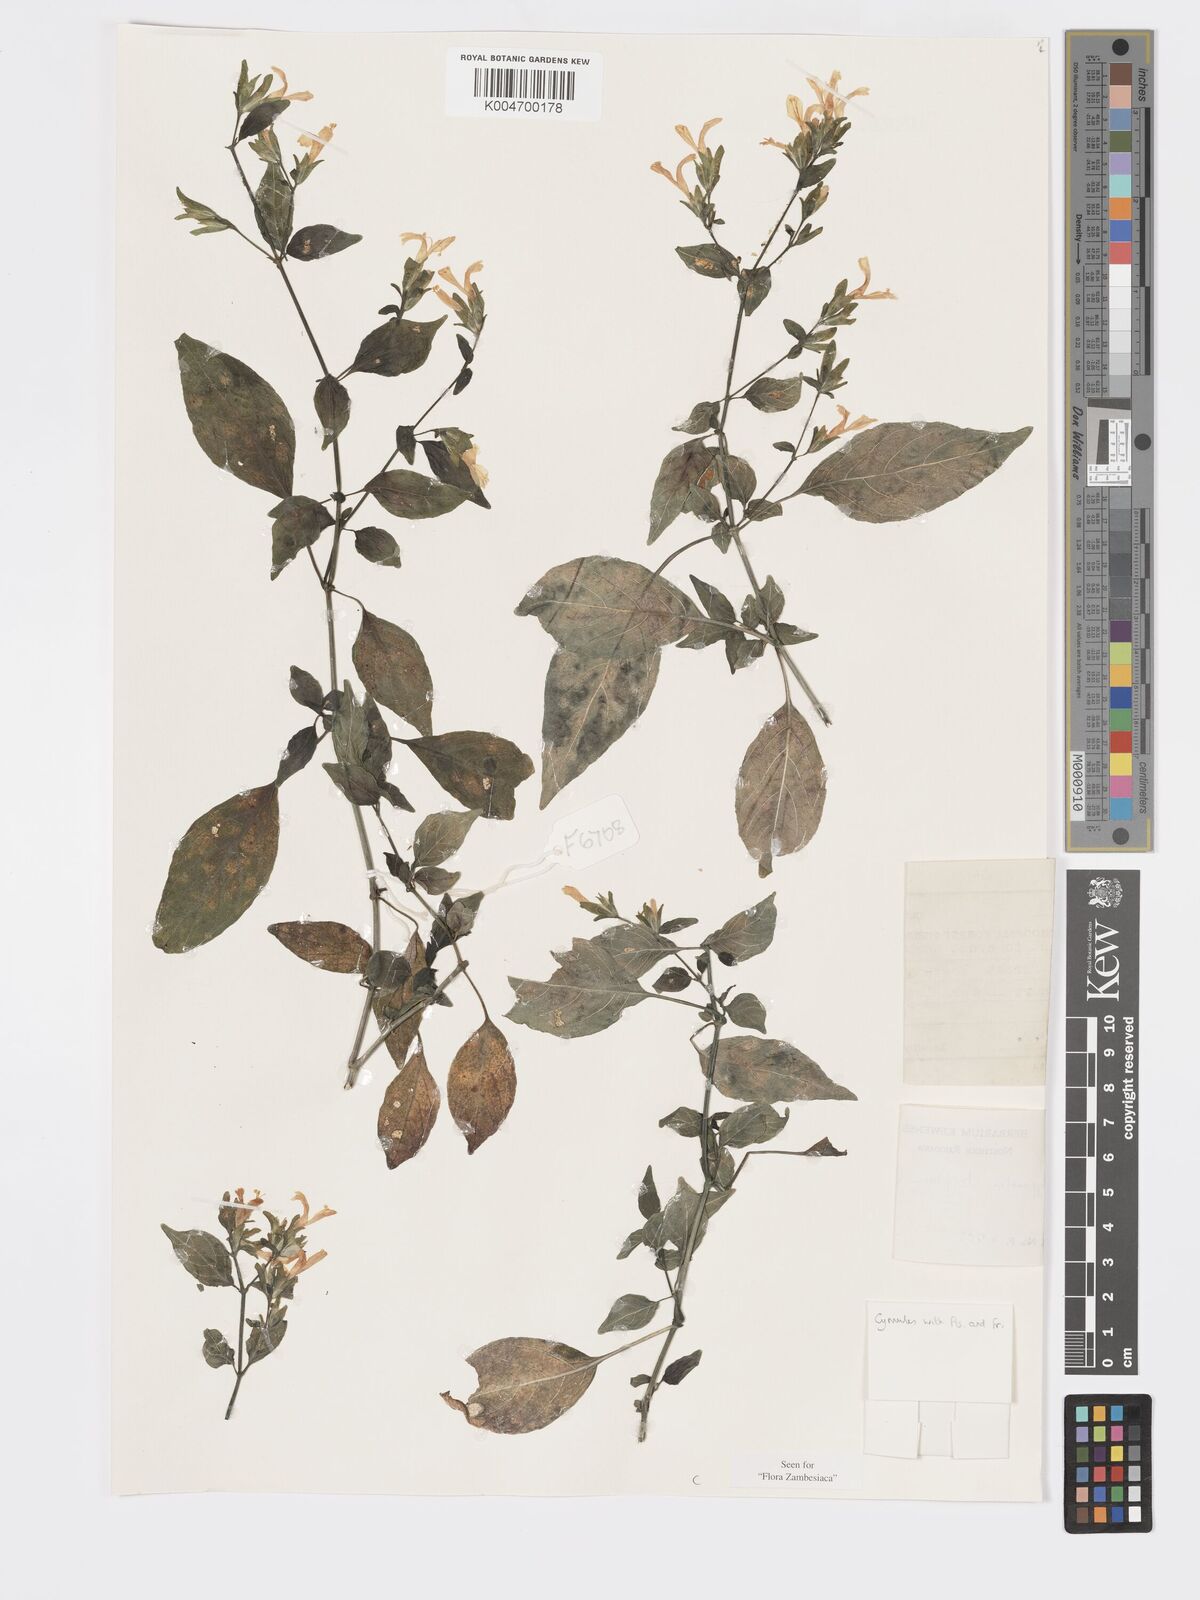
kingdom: Plantae
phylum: Tracheophyta
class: Magnoliopsida
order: Lamiales
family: Acanthaceae
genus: Hypoestes
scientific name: Hypoestes triflora
